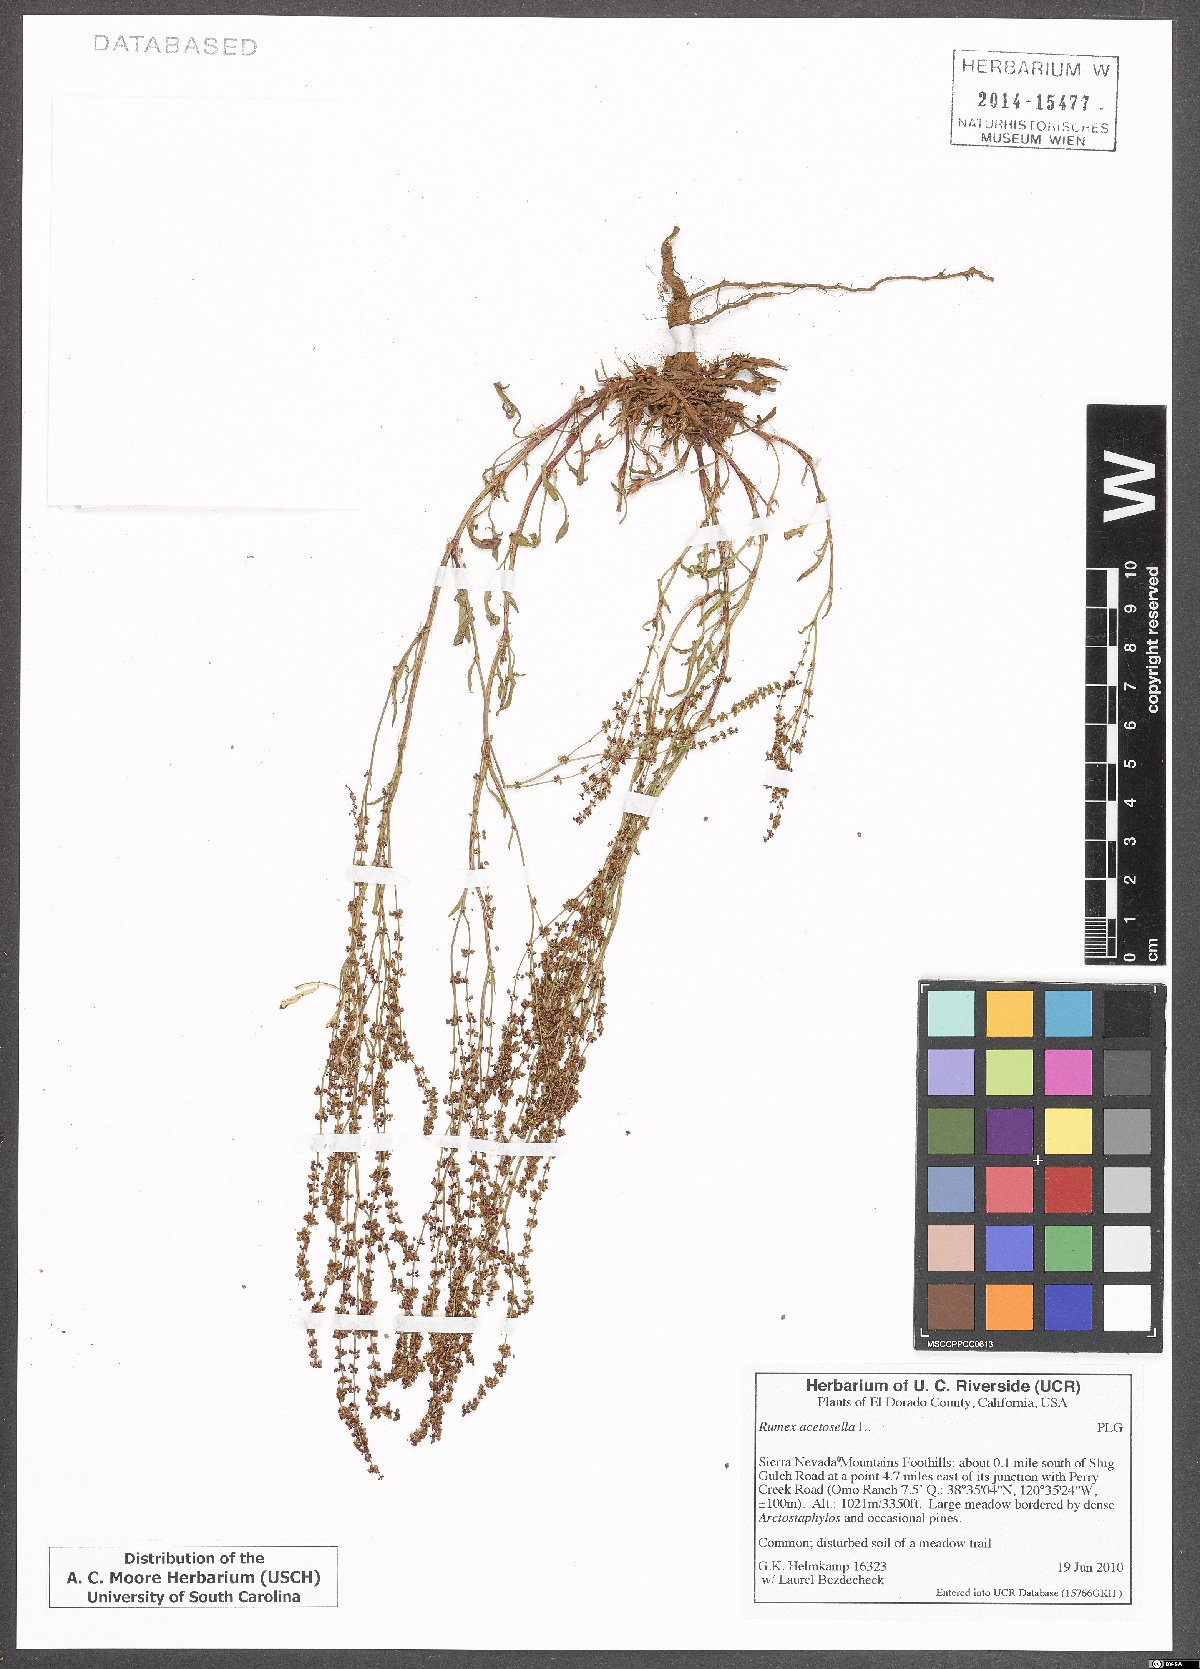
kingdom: Plantae
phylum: Tracheophyta
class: Magnoliopsida
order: Caryophyllales
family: Polygonaceae
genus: Rumex
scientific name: Rumex acetosella
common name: Common sheep sorrel
